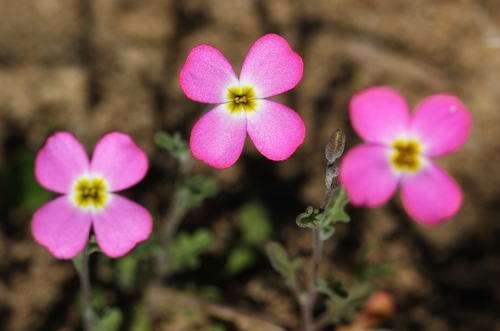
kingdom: Plantae
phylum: Tracheophyta
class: Magnoliopsida
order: Brassicales
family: Brassicaceae
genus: Marcuskochia
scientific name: Marcuskochia triloba
